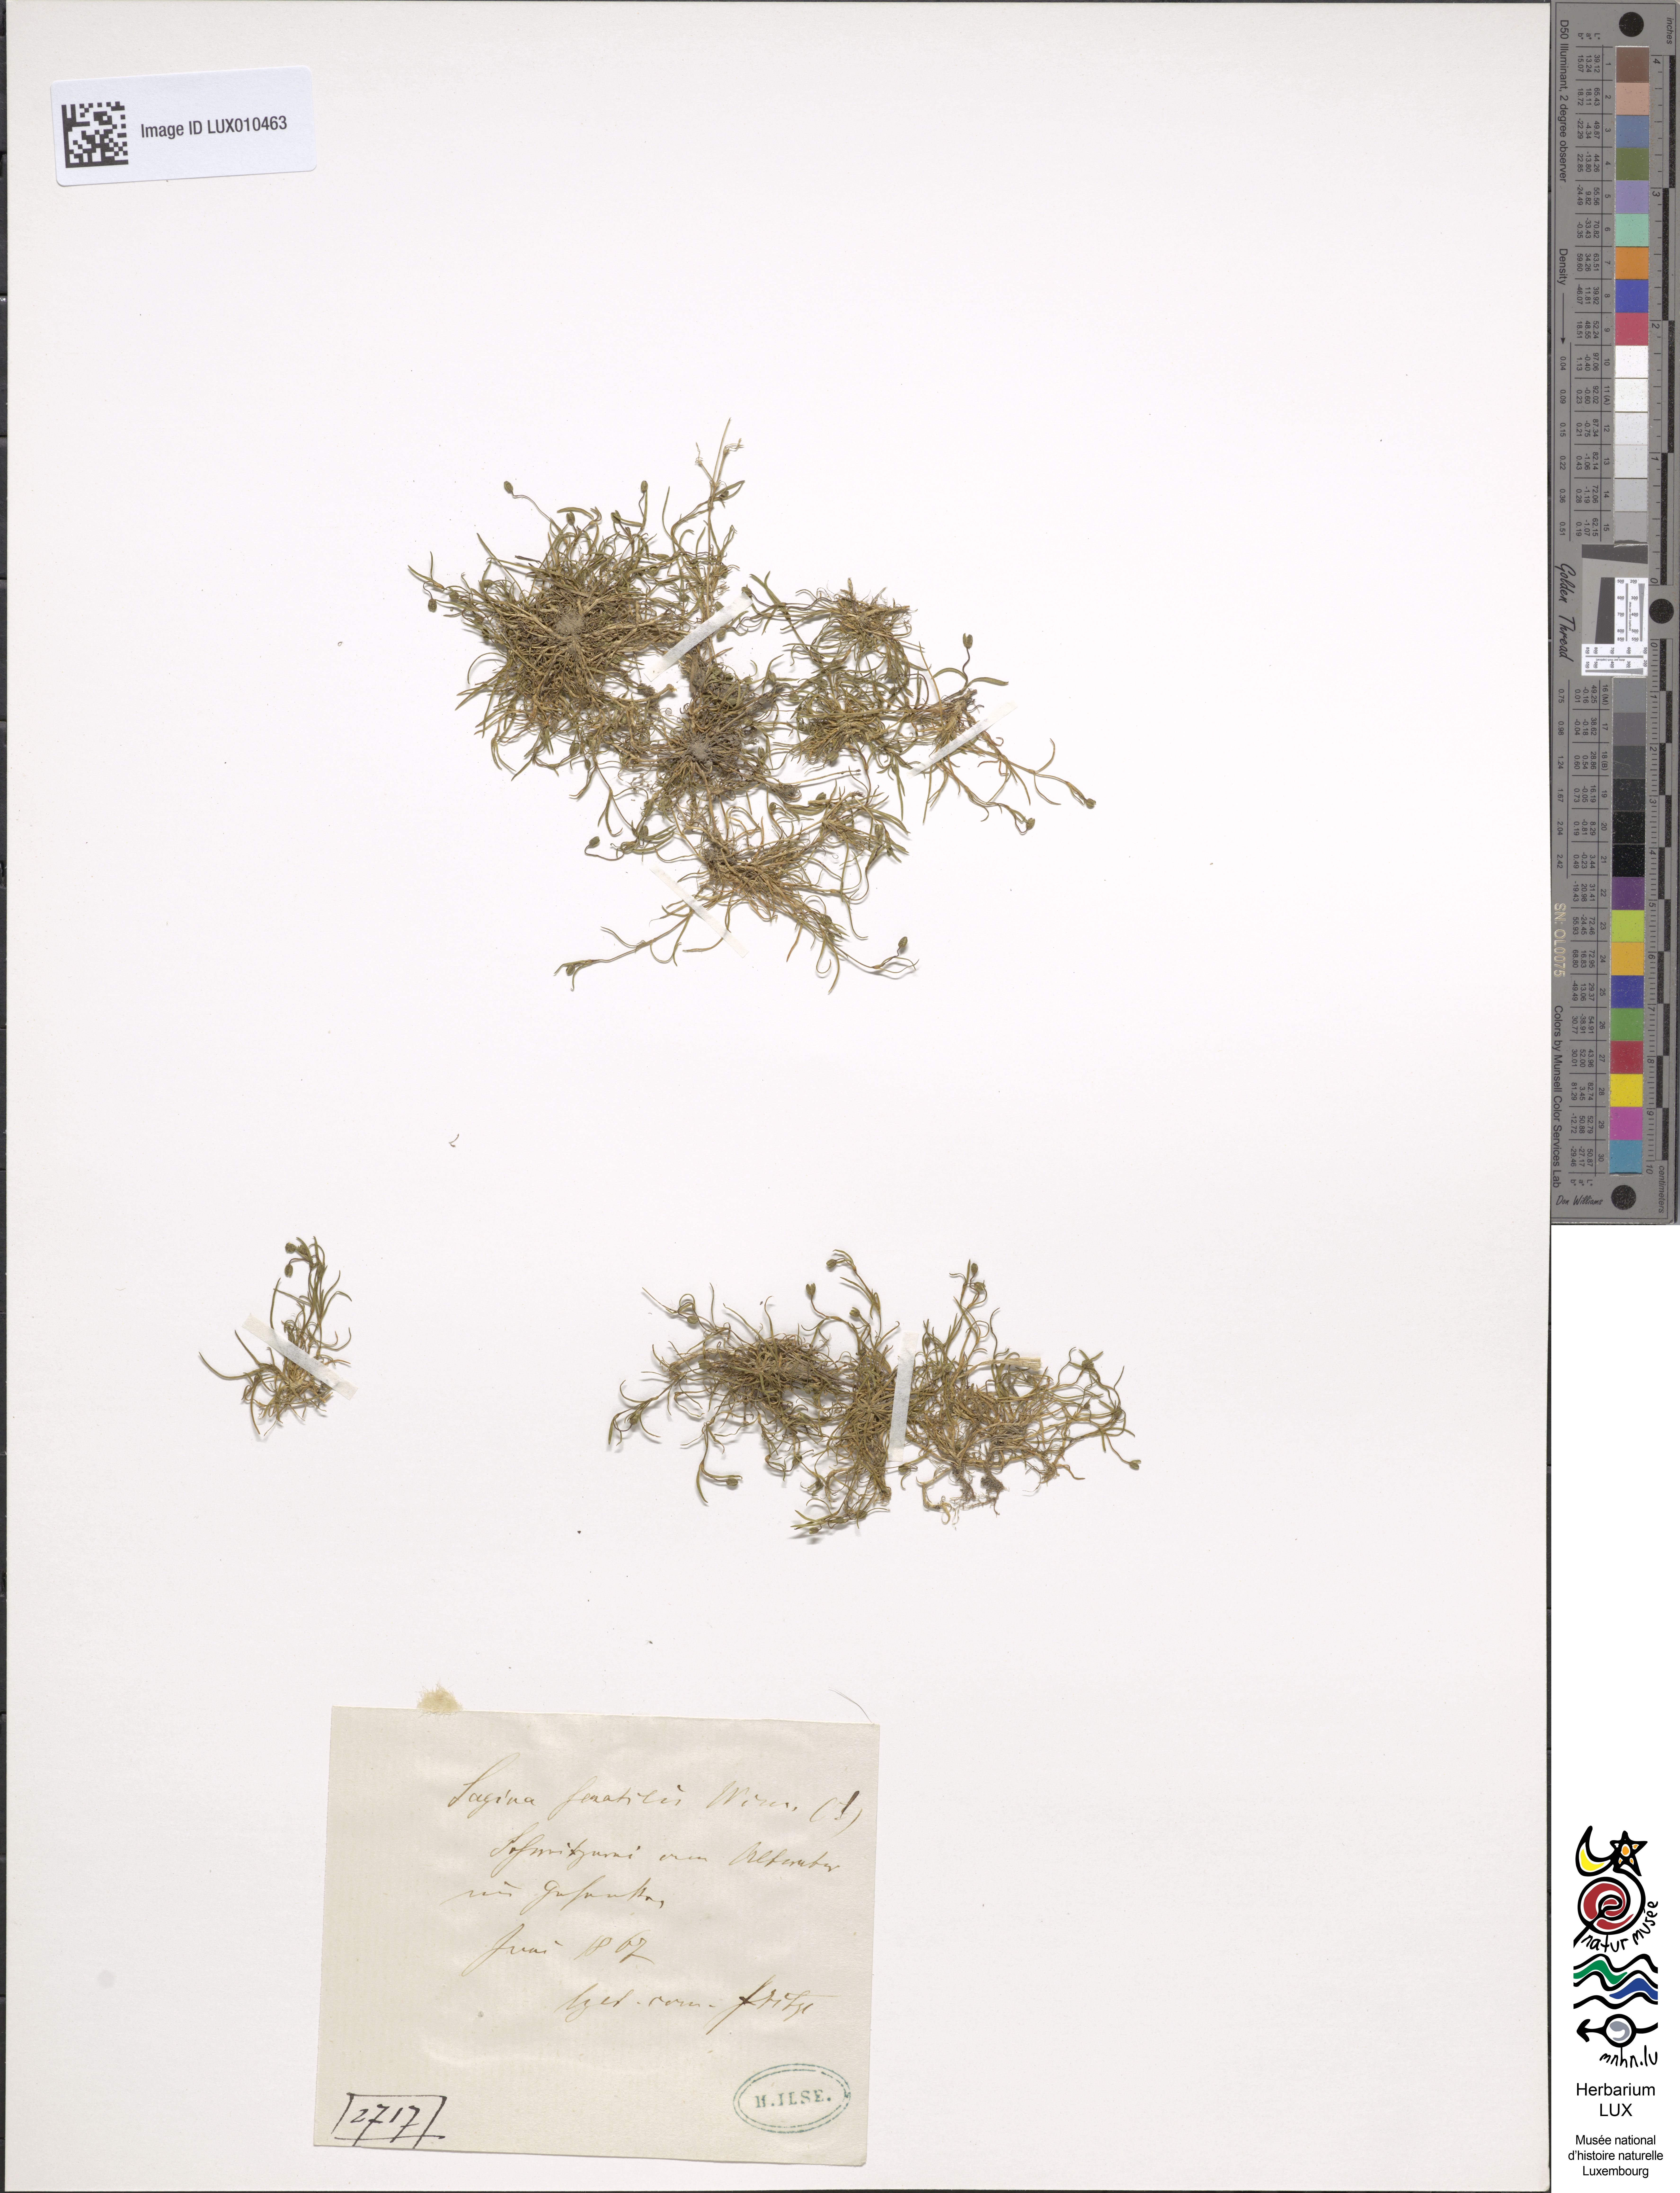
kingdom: Plantae
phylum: Tracheophyta
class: Magnoliopsida
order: Caryophyllales
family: Caryophyllaceae
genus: Sagina
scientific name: Sagina saginoides
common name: Alpine pearlwort
